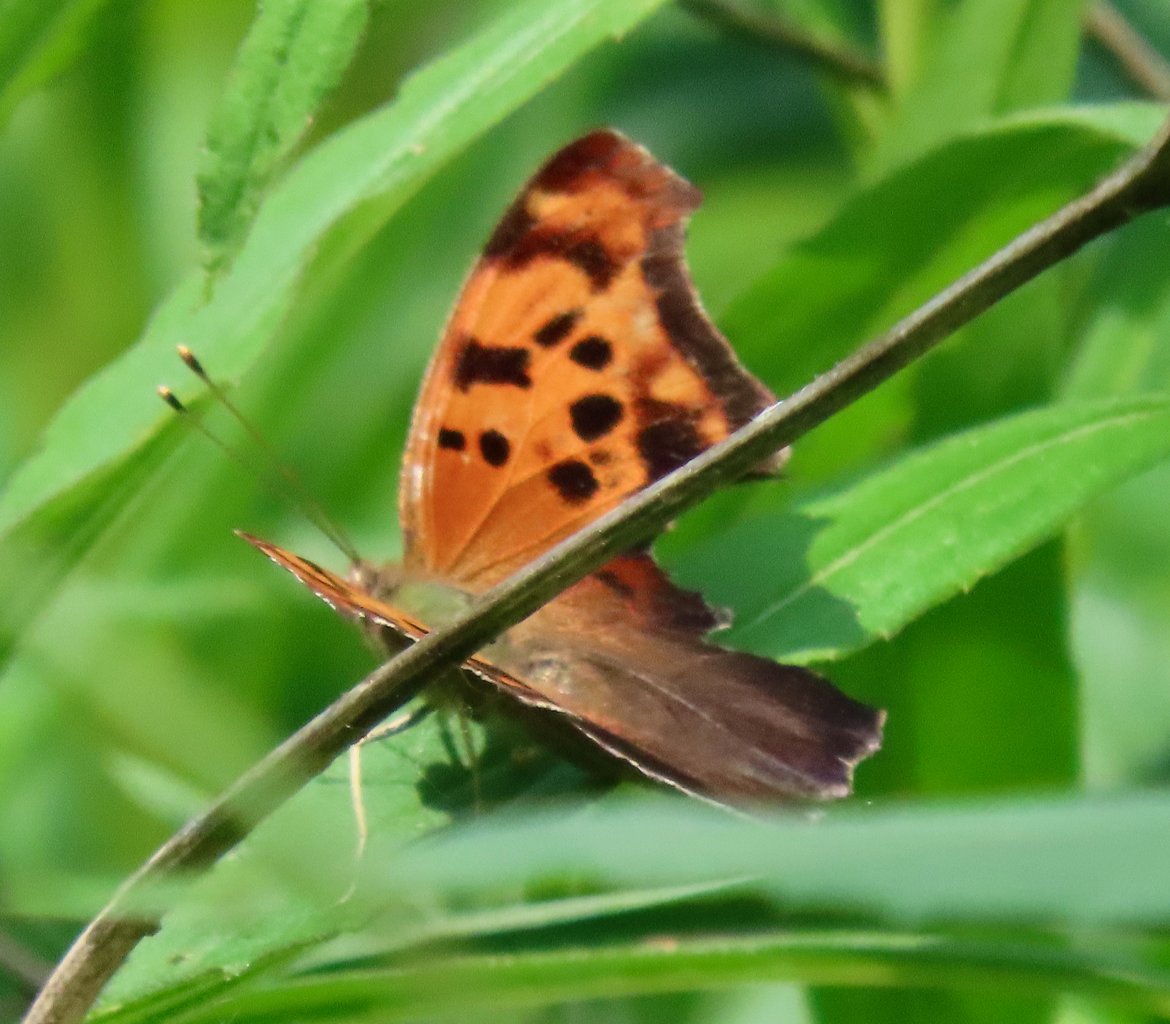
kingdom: Animalia
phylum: Arthropoda
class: Insecta
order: Lepidoptera
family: Nymphalidae
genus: Polygonia
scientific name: Polygonia interrogationis
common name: Question Mark
